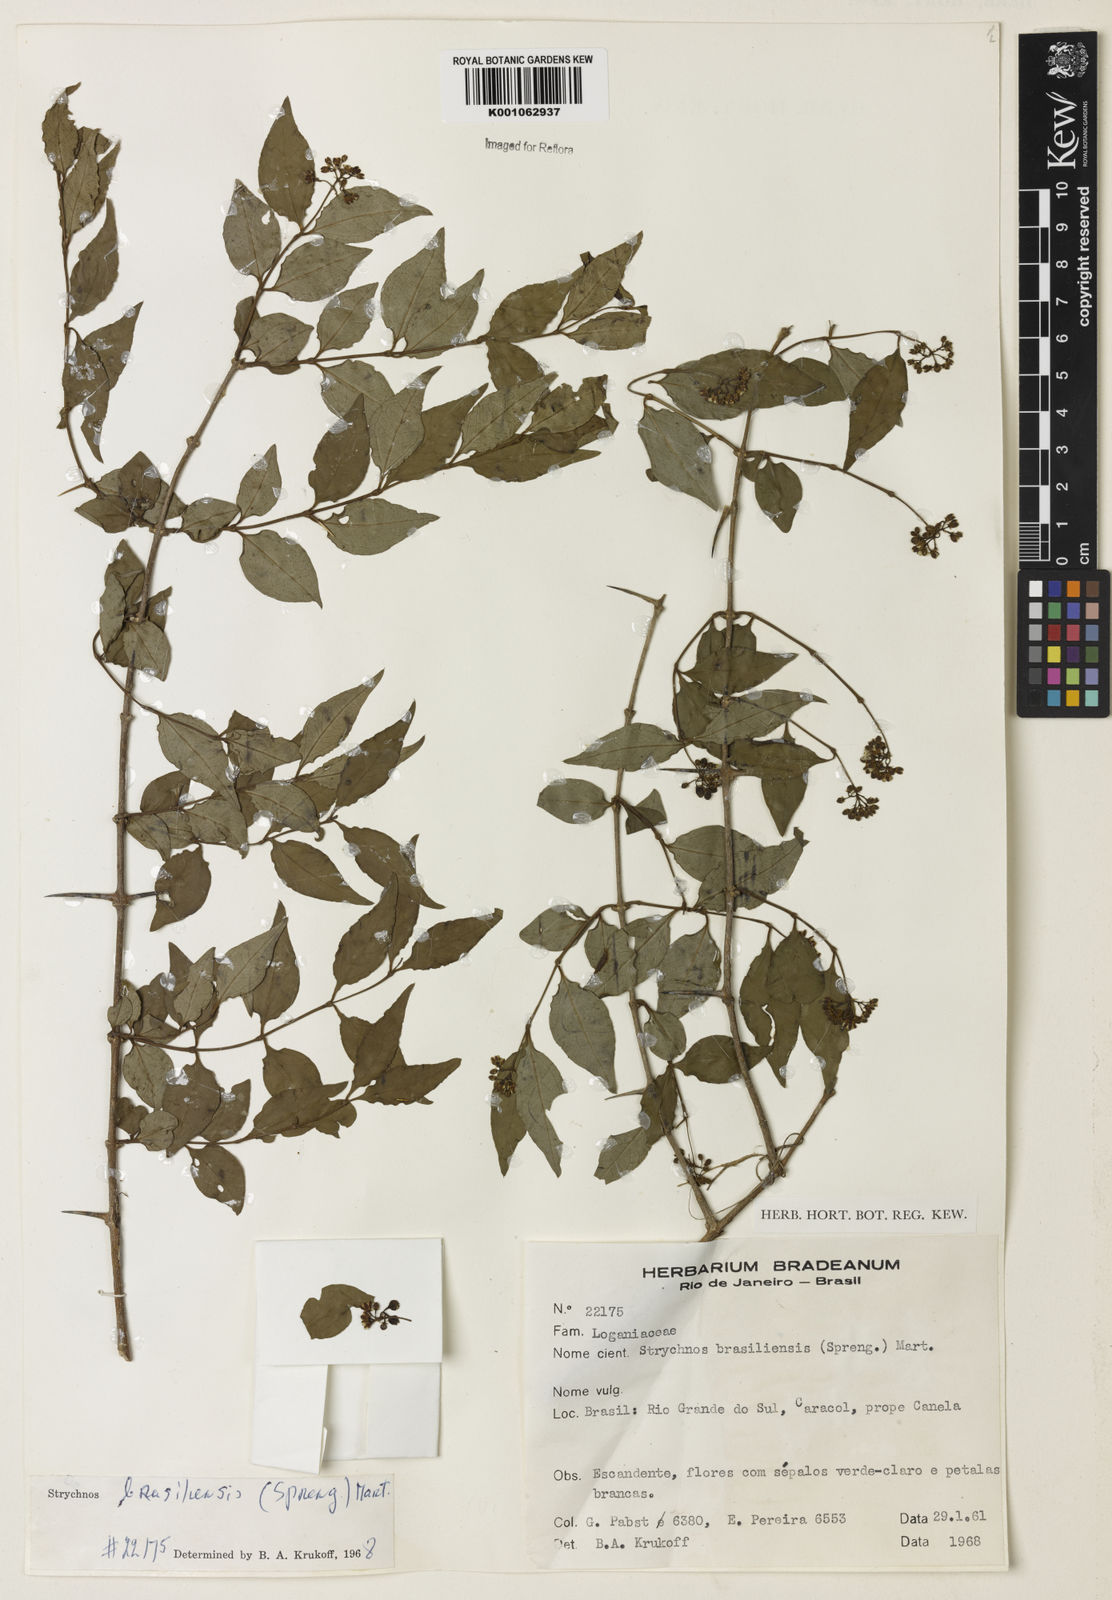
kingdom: Plantae
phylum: Tracheophyta
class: Magnoliopsida
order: Gentianales
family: Loganiaceae
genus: Strychnos
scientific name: Strychnos brasiliensis
